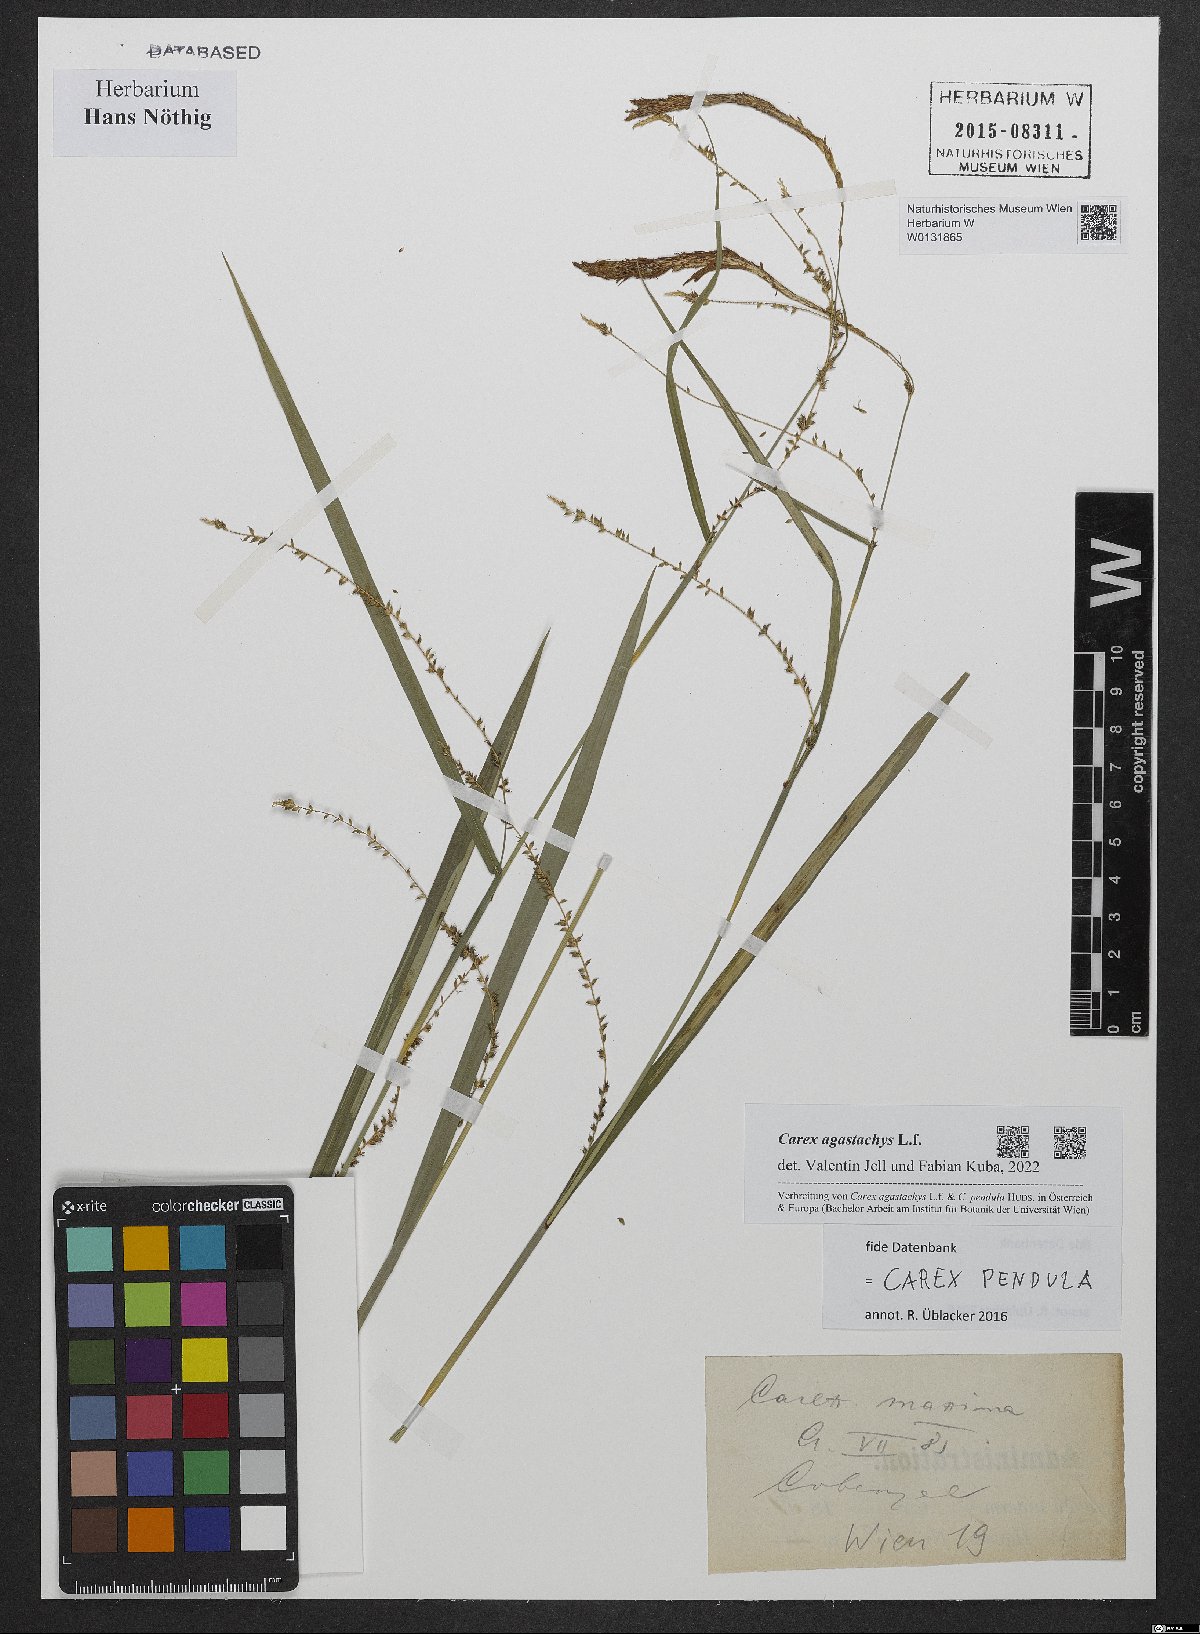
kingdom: Plantae
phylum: Tracheophyta
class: Liliopsida
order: Poales
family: Cyperaceae
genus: Carex
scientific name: Carex agastachys
